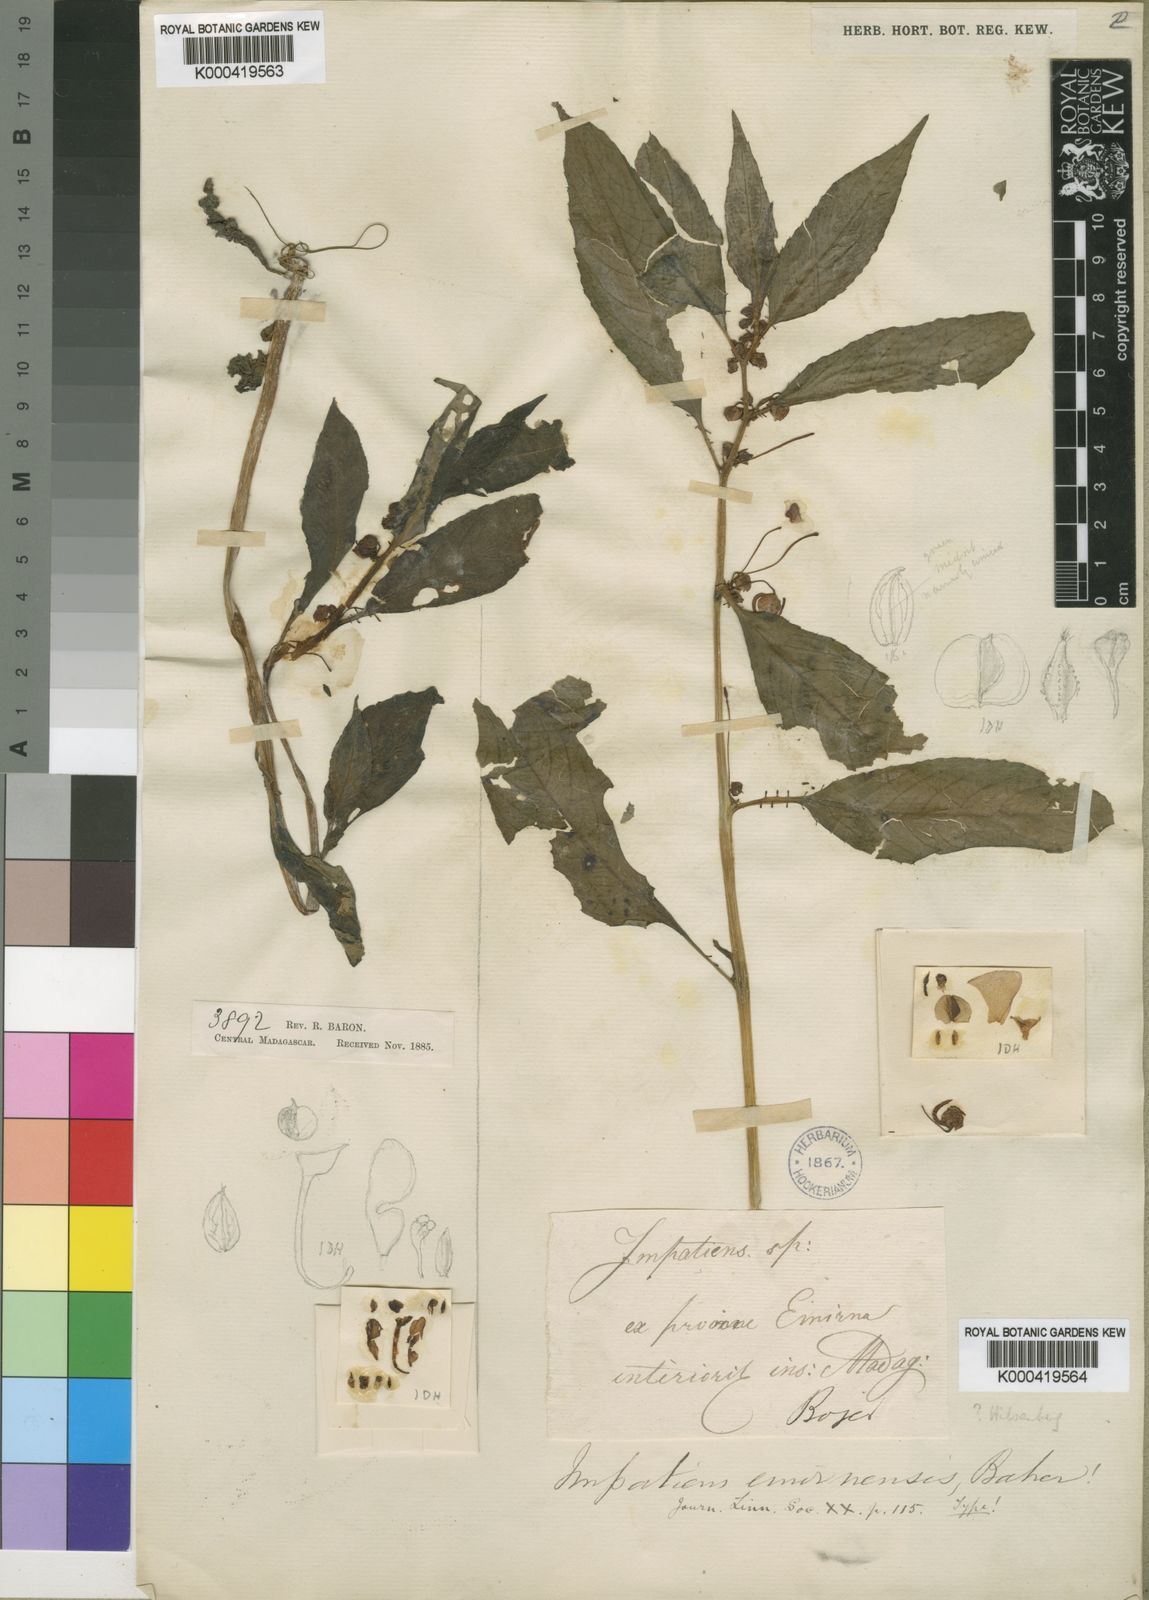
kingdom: Plantae
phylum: Tracheophyta
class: Magnoliopsida
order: Ericales
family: Balsaminaceae
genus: Impatiens
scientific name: Impatiens baronii
